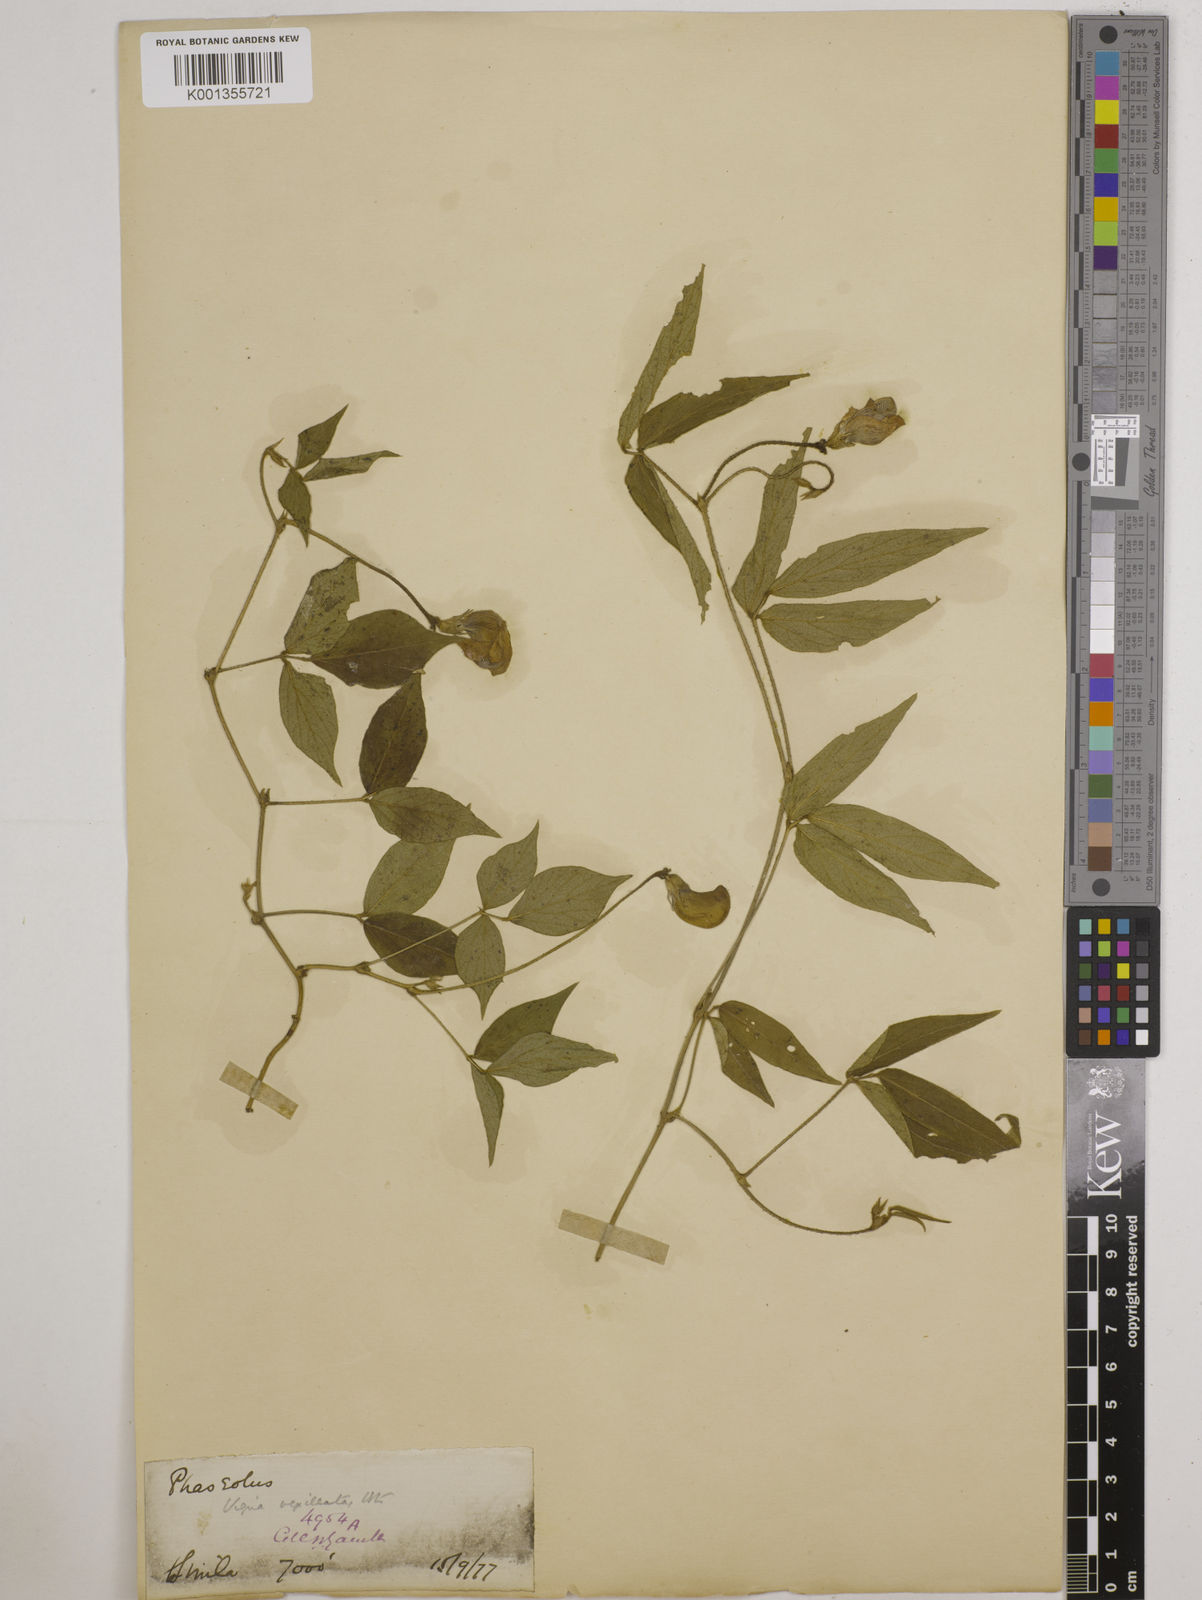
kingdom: Plantae
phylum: Tracheophyta
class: Magnoliopsida
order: Fabales
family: Fabaceae
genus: Vigna
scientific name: Vigna vexillata
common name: Zombi pea
